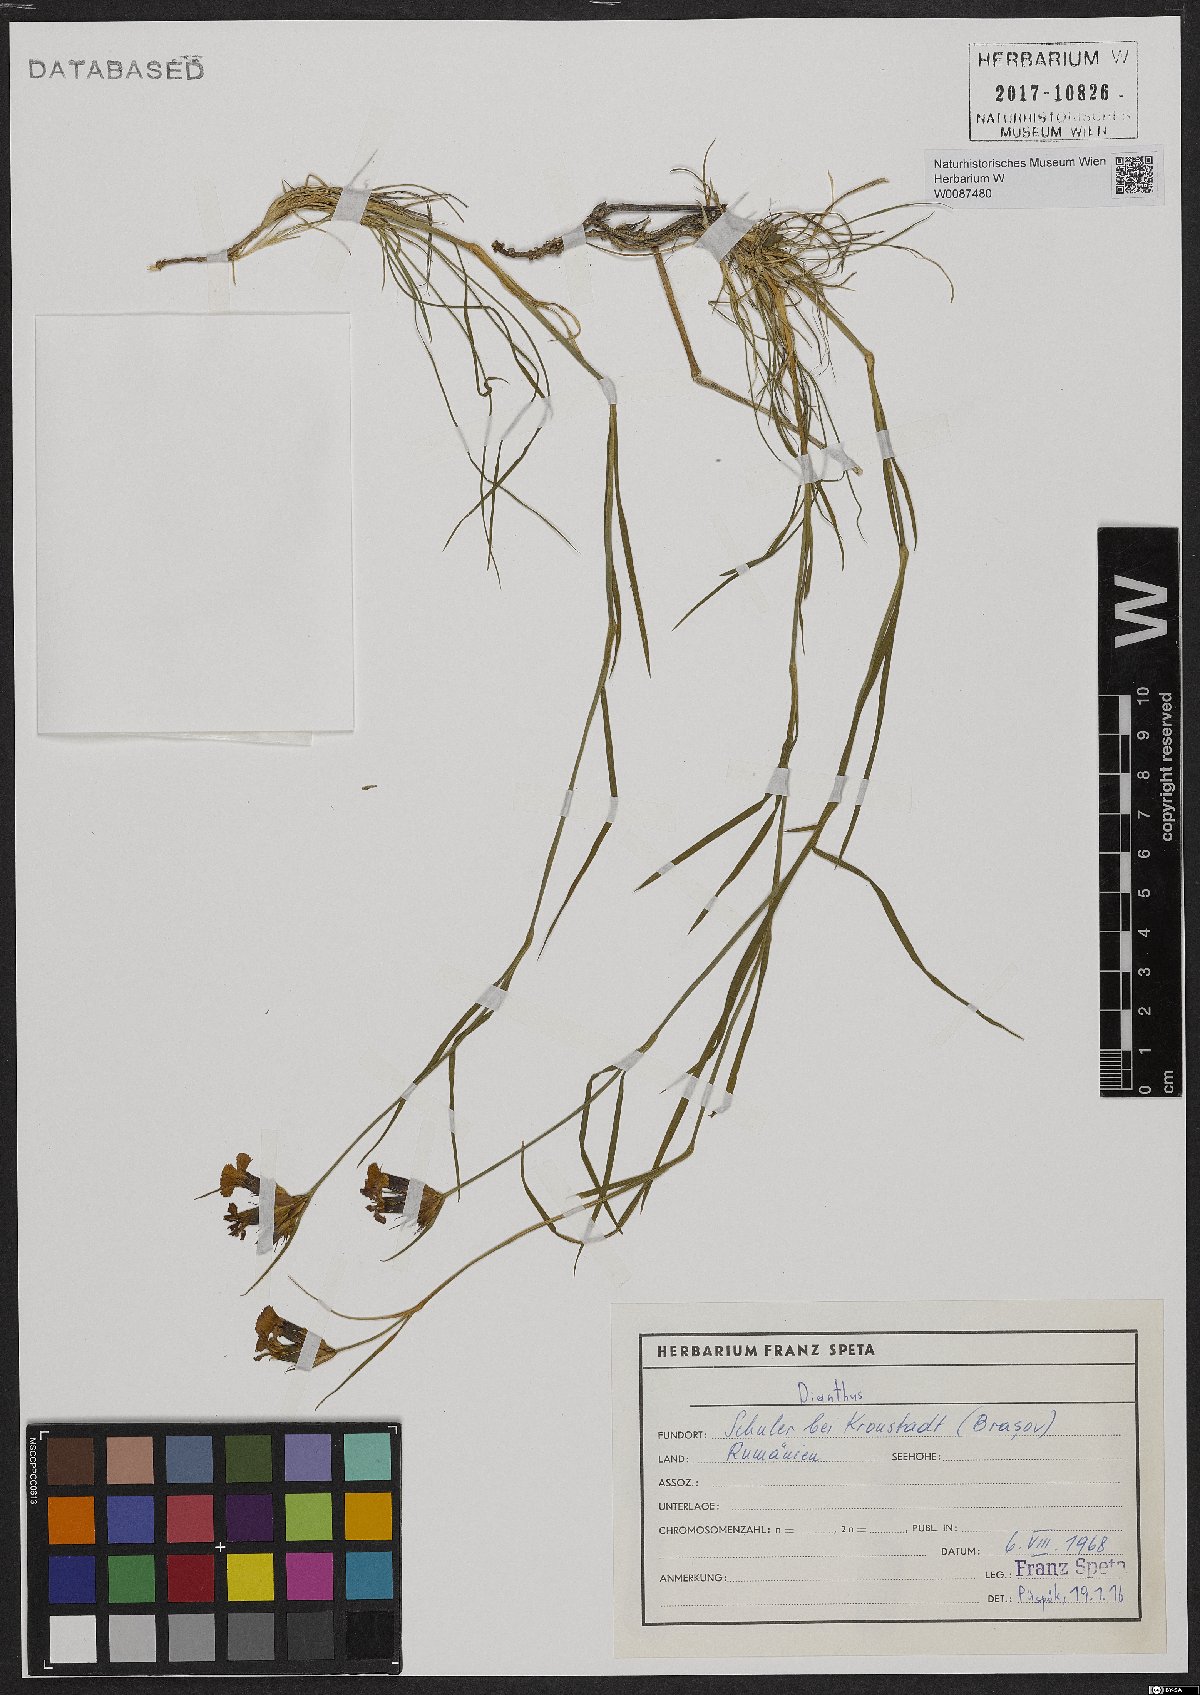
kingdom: Plantae
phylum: Tracheophyta
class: Magnoliopsida
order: Caryophyllales
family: Caryophyllaceae
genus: Dianthus
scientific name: Dianthus
